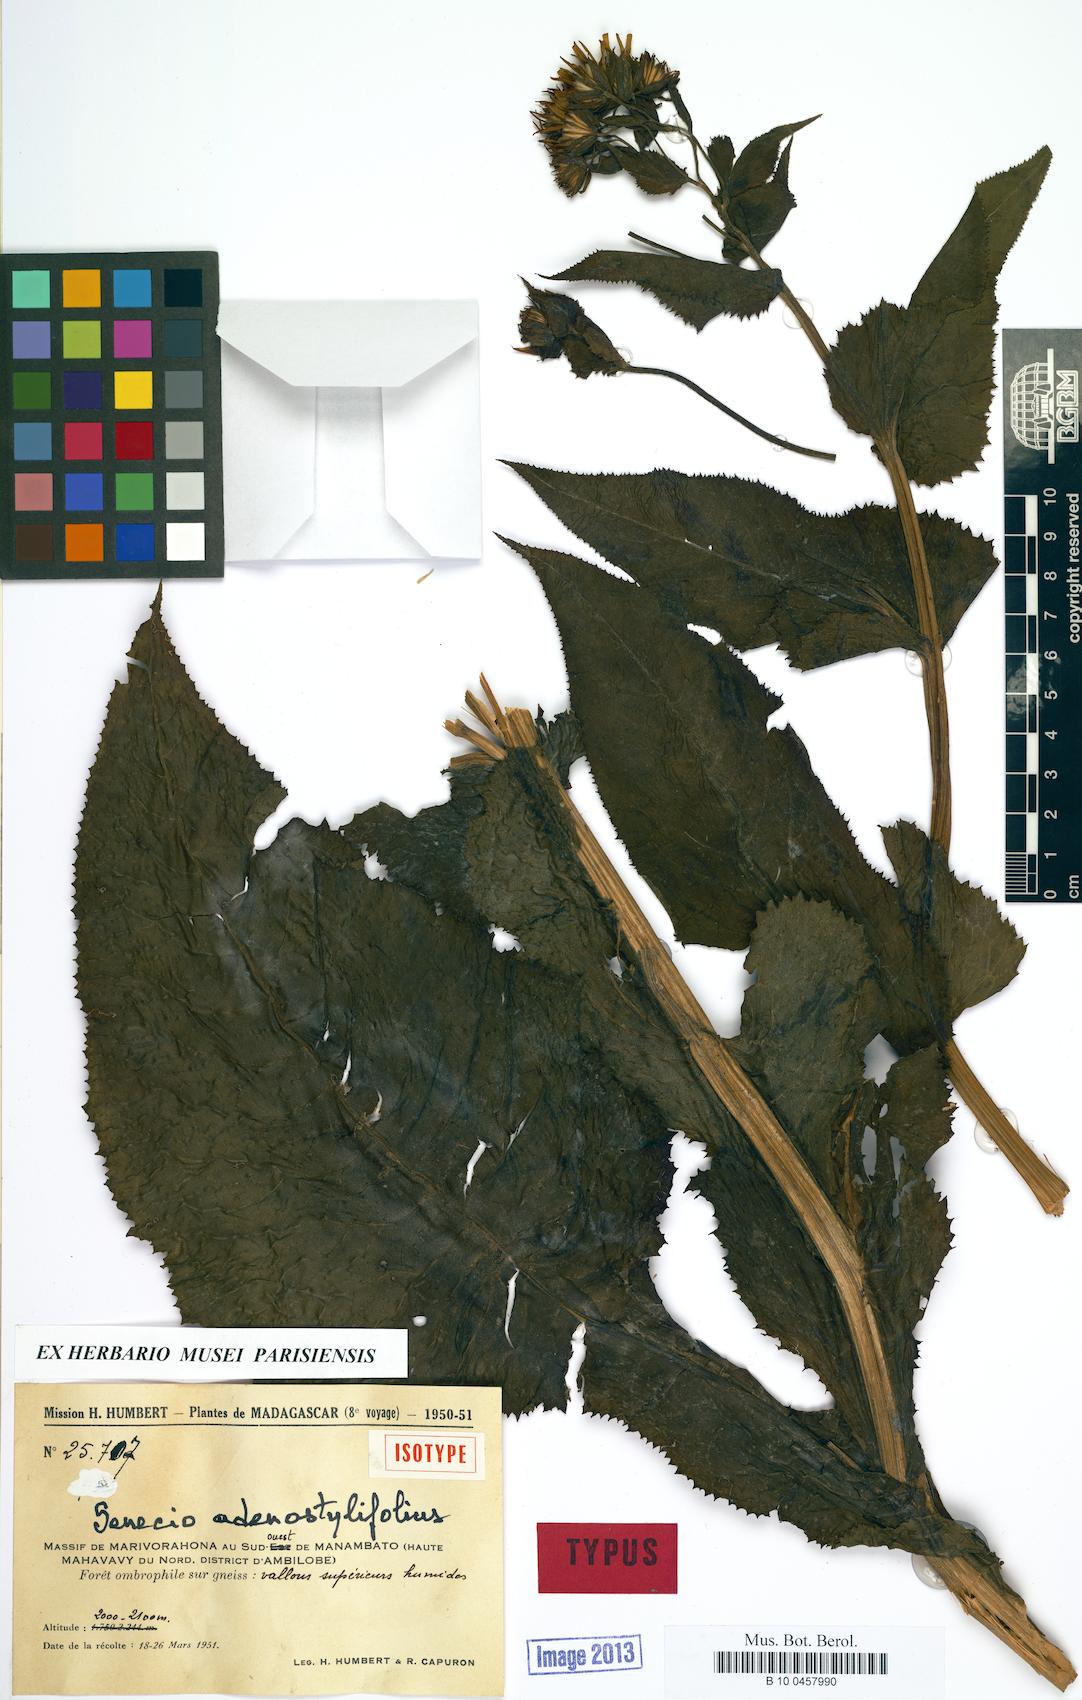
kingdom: Plantae
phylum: Tracheophyta
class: Magnoliopsida
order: Asterales
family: Asteraceae
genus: Senecio
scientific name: Senecio adenostylifolius
